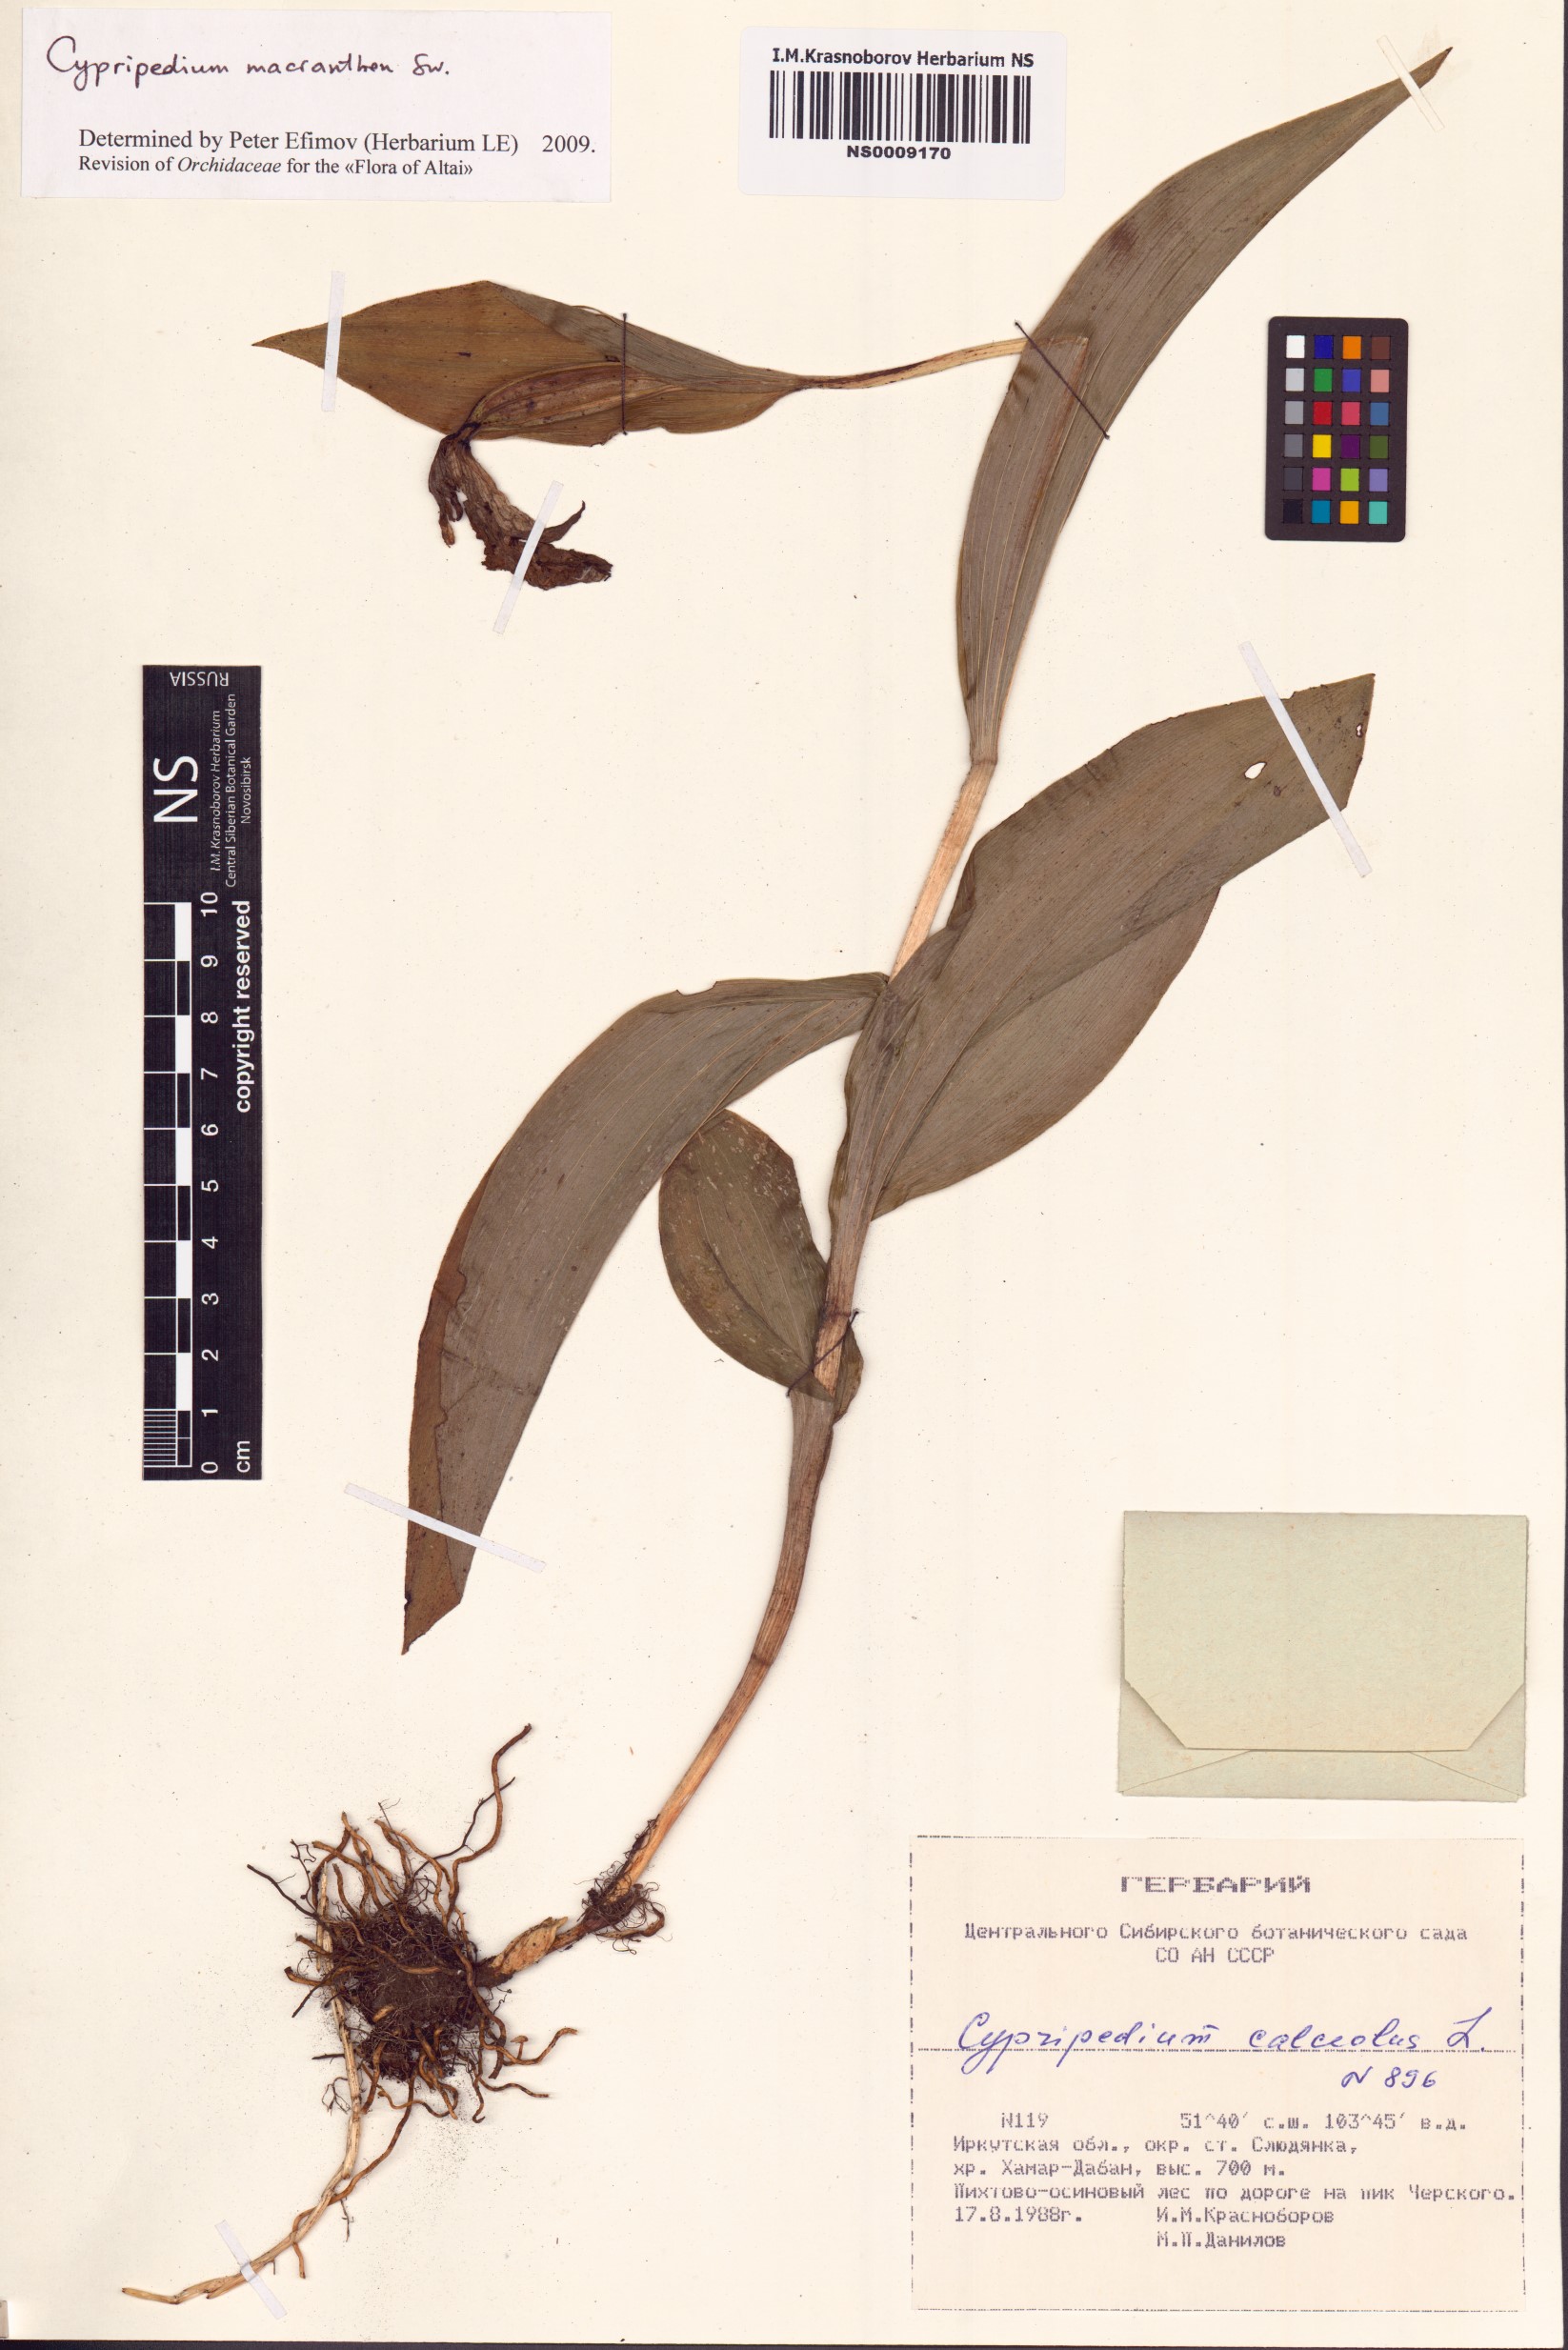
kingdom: Plantae
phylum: Tracheophyta
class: Liliopsida
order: Asparagales
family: Orchidaceae
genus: Cypripedium
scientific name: Cypripedium macranthos
